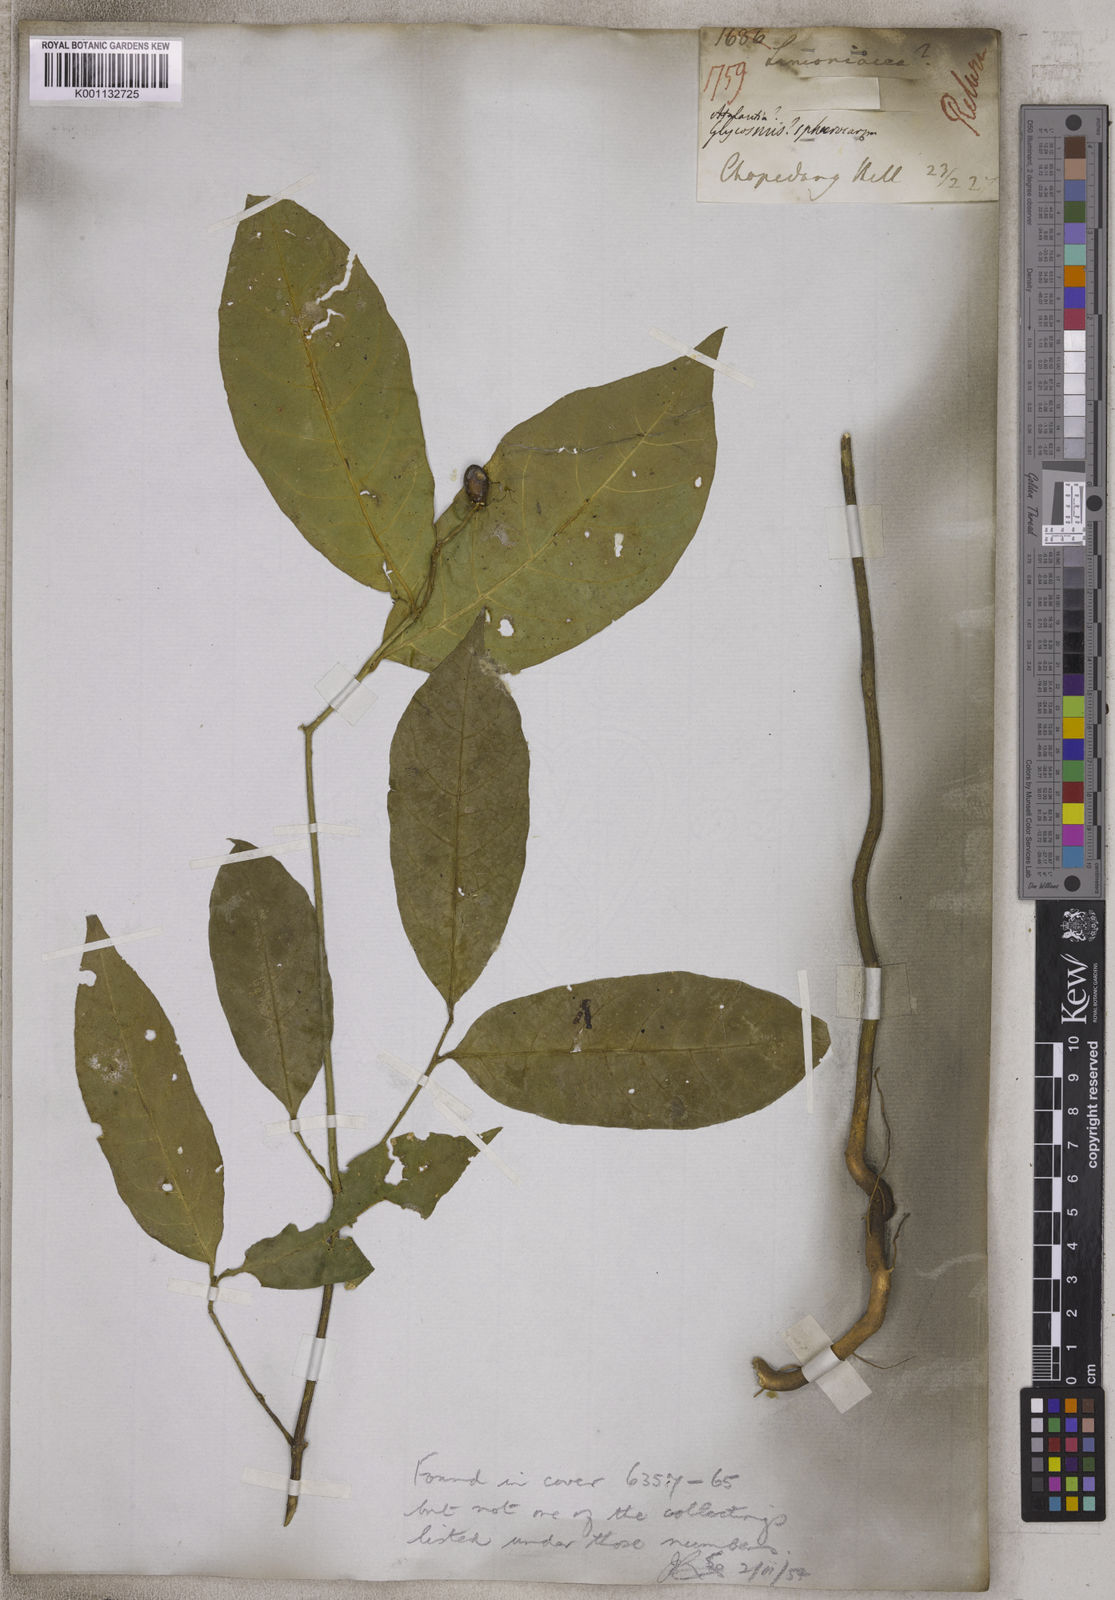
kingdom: Plantae
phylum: Tracheophyta
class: Magnoliopsida
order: Santalales
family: Opiliaceae
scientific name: Opiliaceae
